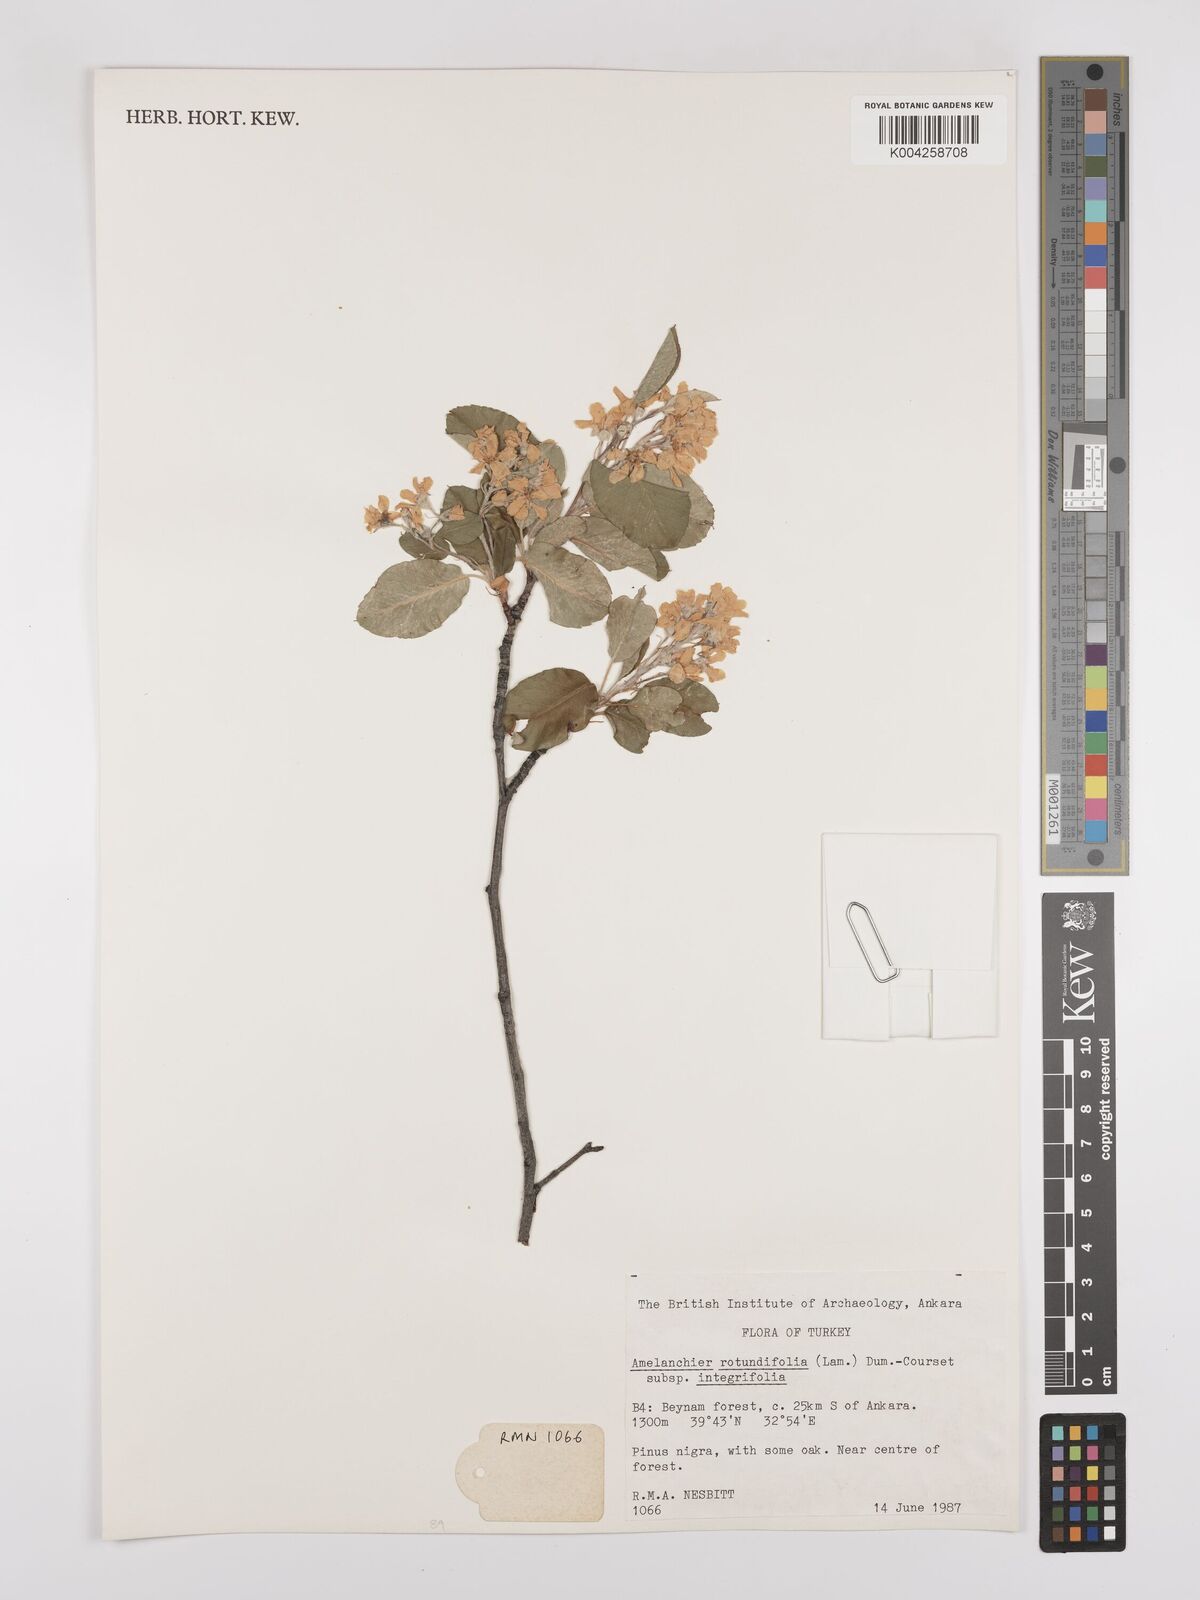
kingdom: Plantae
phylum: Tracheophyta
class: Magnoliopsida
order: Rosales
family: Rosaceae
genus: Amelanchier
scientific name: Amelanchier ovalis
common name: Serviceberry
